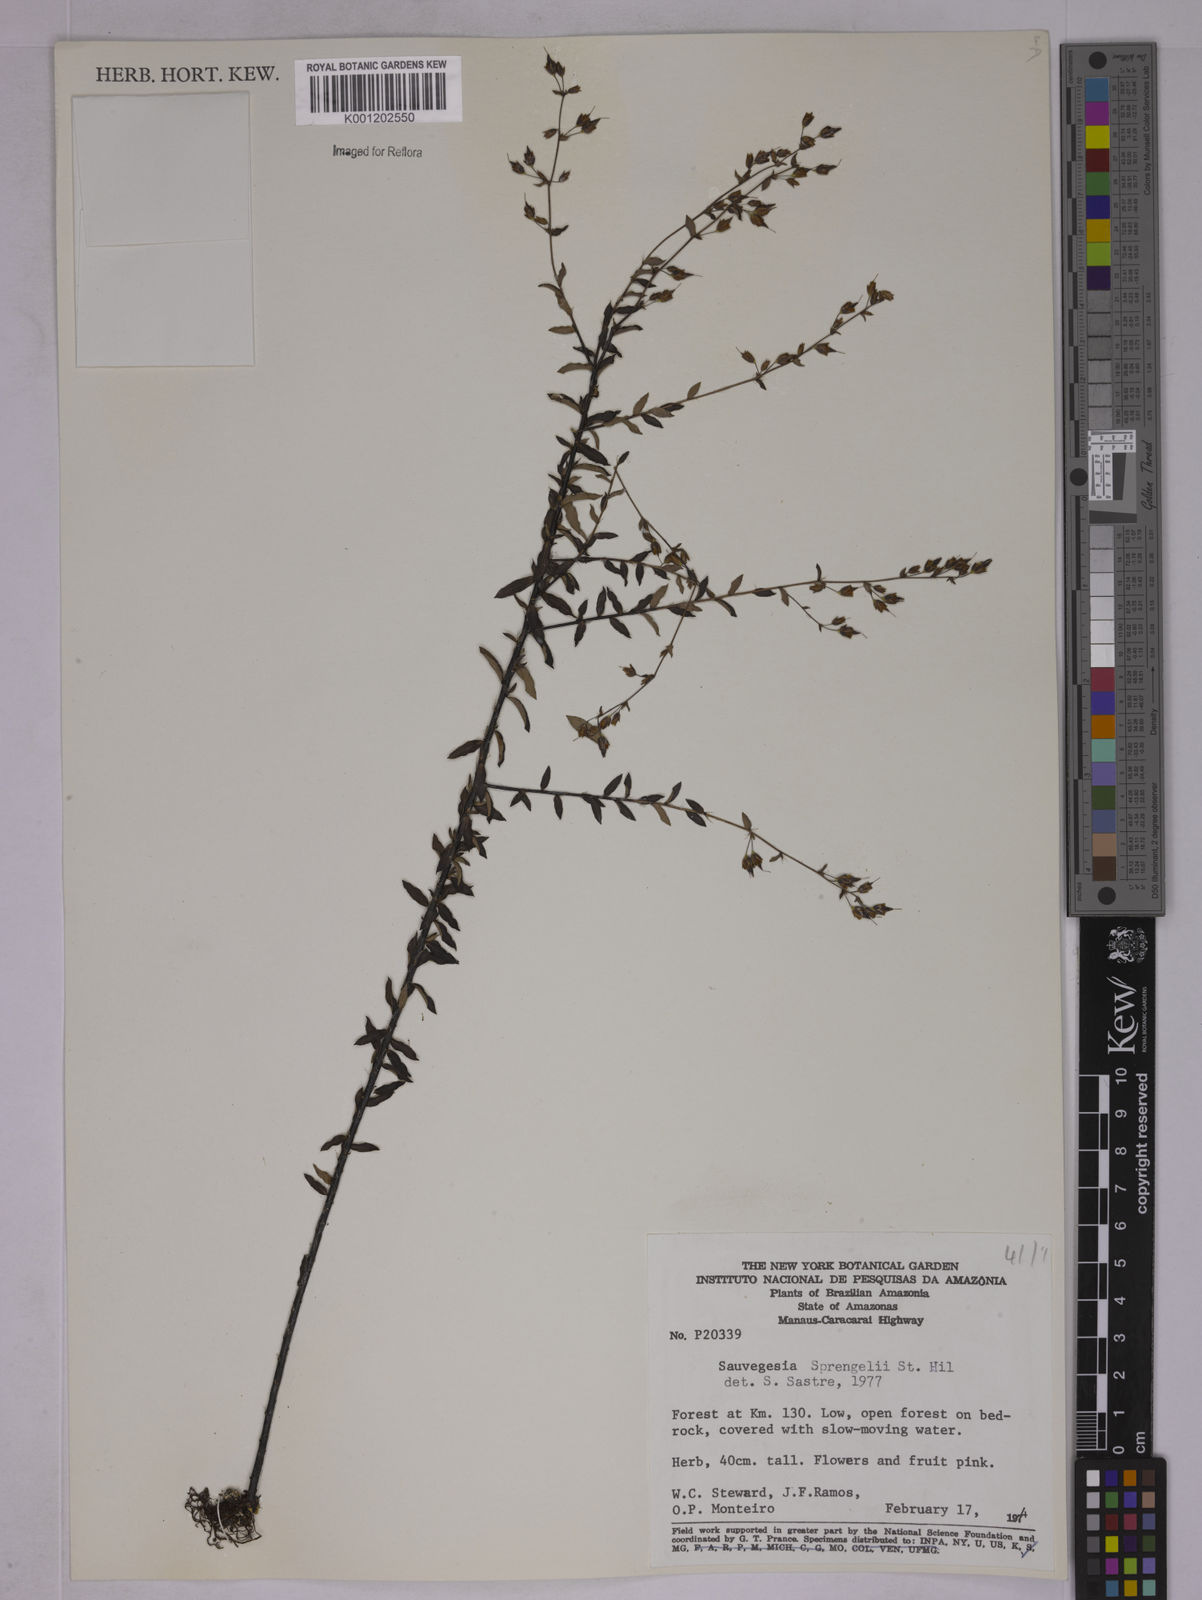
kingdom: Plantae
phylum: Tracheophyta
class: Magnoliopsida
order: Malpighiales
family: Ochnaceae
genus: Sauvagesia
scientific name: Sauvagesia sprengelii
